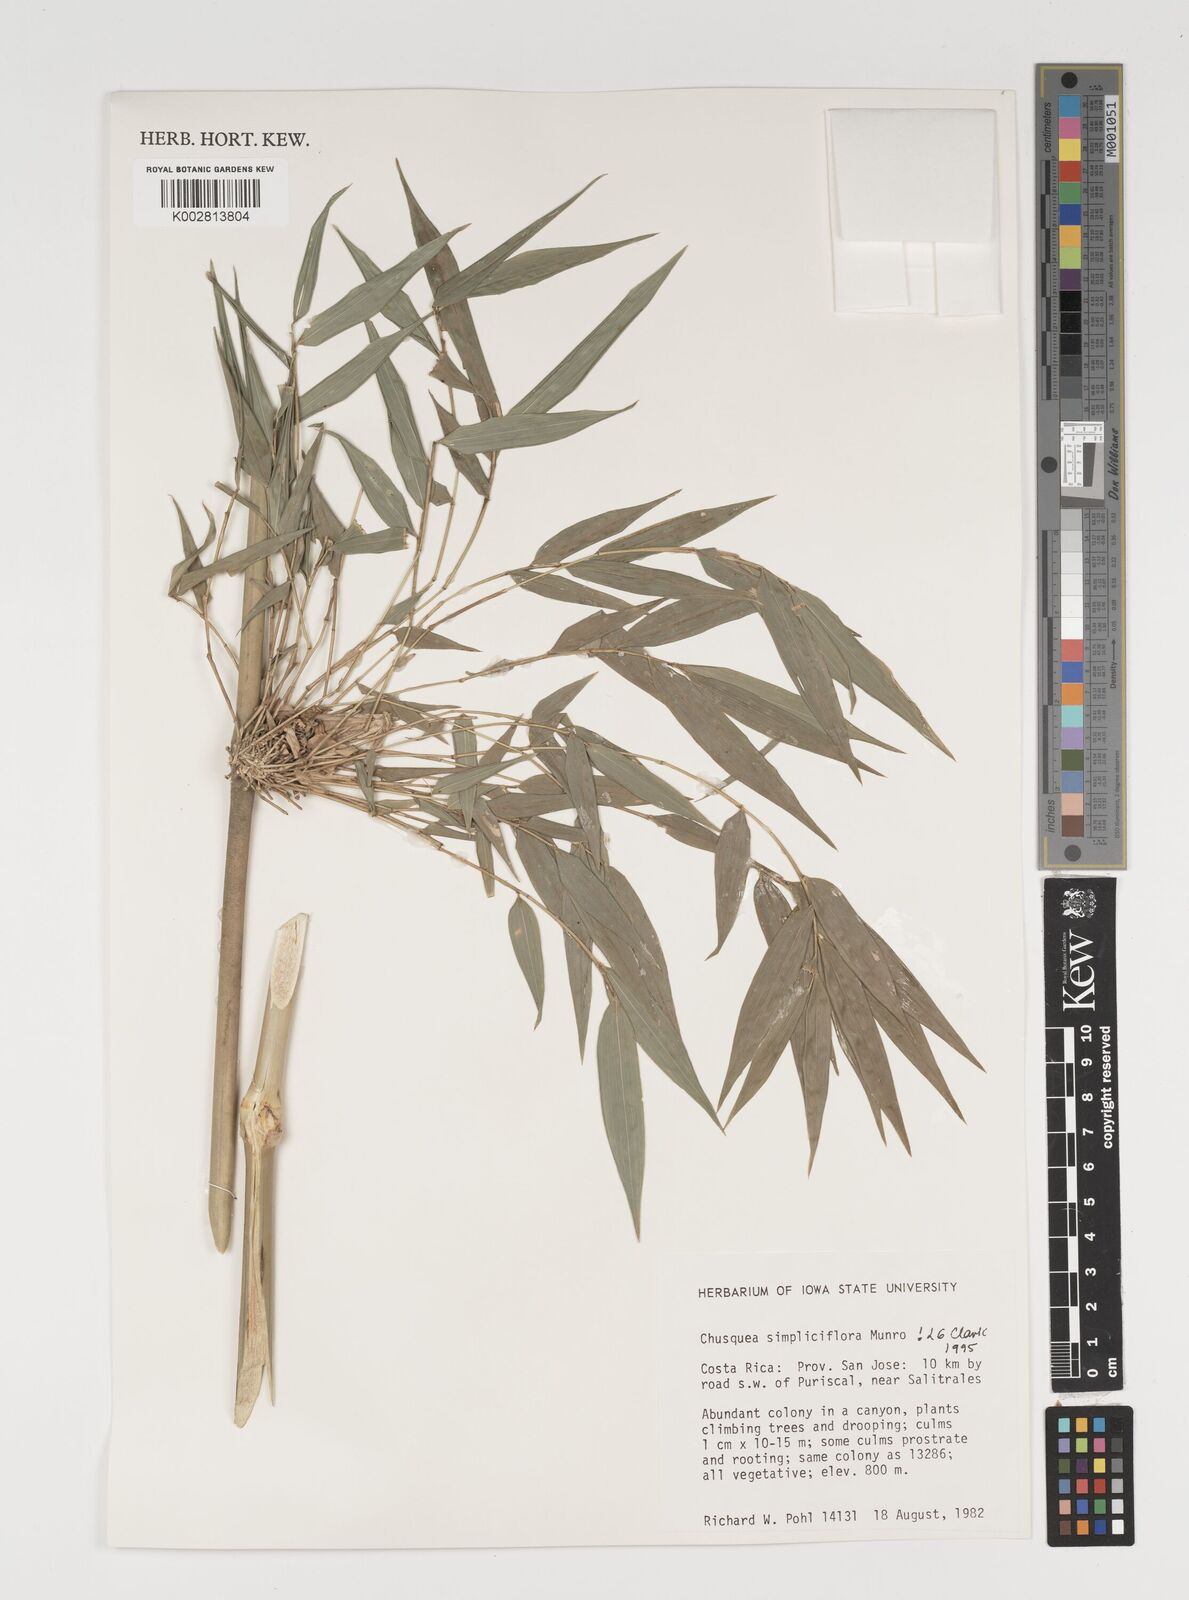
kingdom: Plantae
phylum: Tracheophyta
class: Liliopsida
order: Poales
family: Poaceae
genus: Chusquea
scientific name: Chusquea simpliciflora
